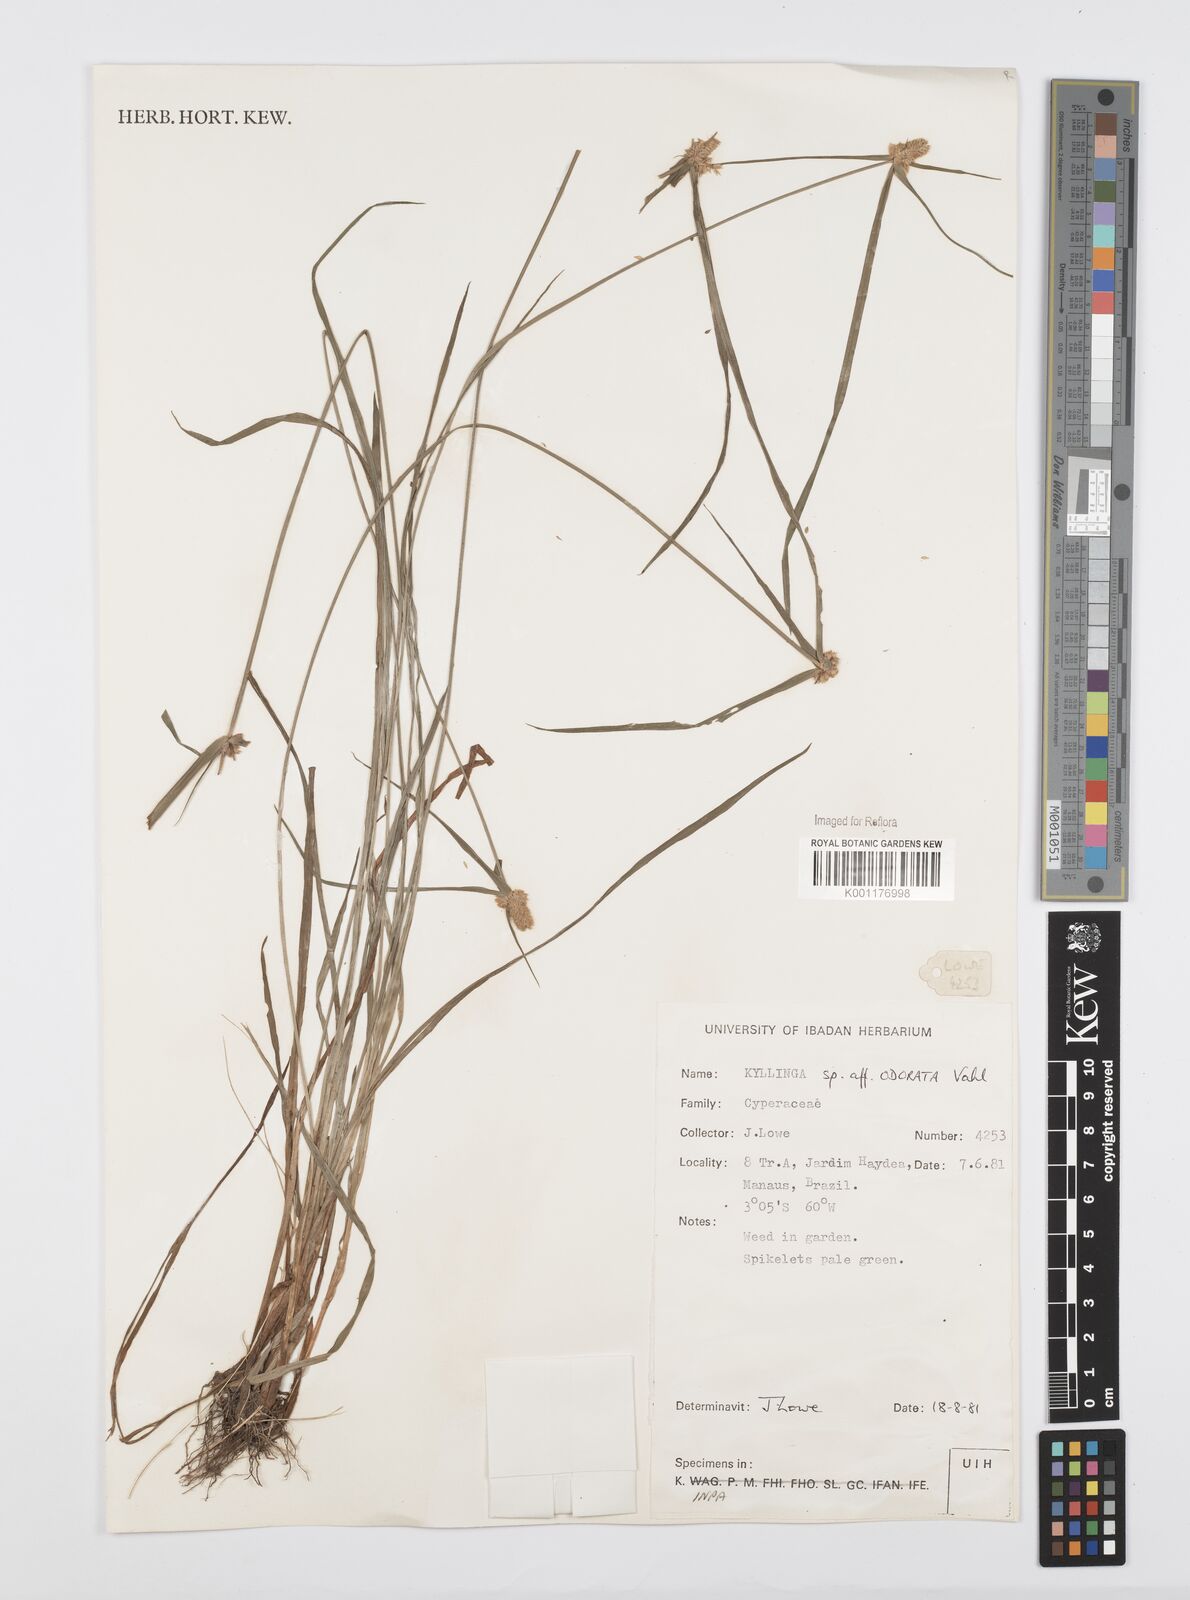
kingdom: Plantae
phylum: Tracheophyta
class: Liliopsida
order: Poales
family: Cyperaceae
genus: Cyperus
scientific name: Cyperus
